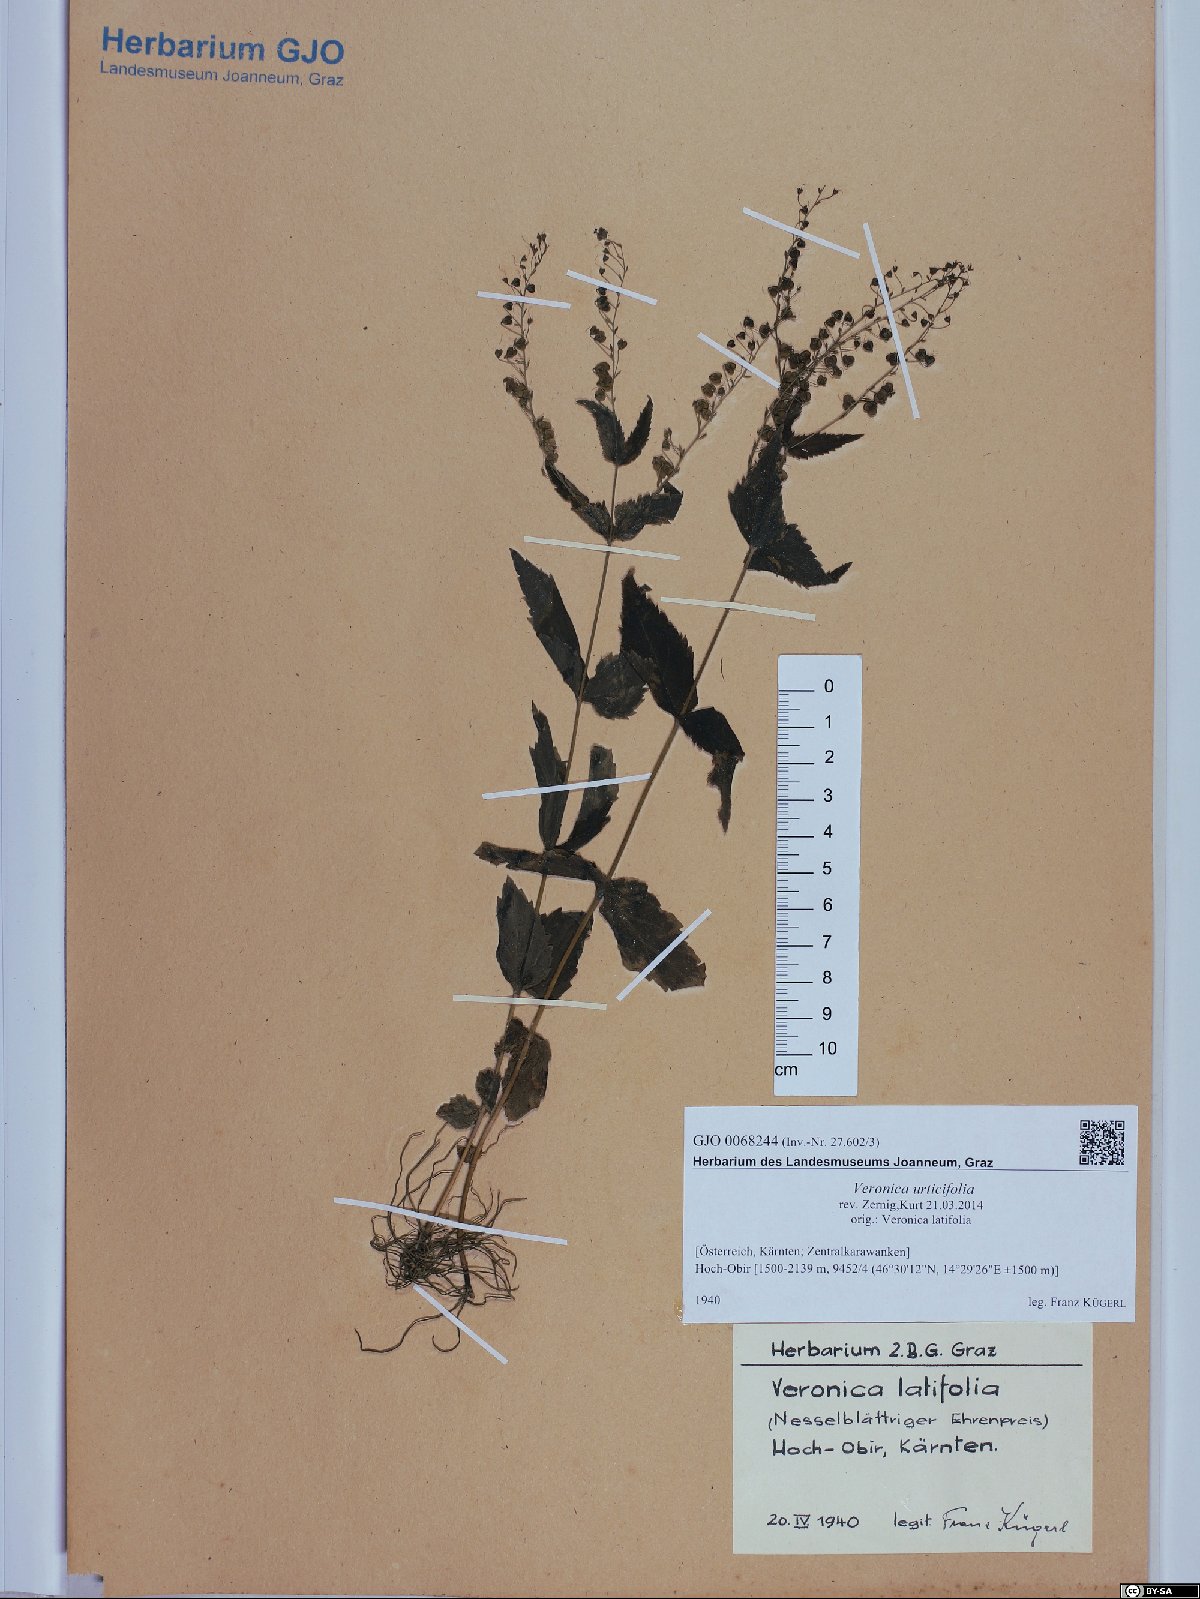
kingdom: Plantae
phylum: Tracheophyta
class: Magnoliopsida
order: Lamiales
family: Plantaginaceae
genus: Veronica
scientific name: Veronica urticifolia
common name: Nettle-leaf speedwell
